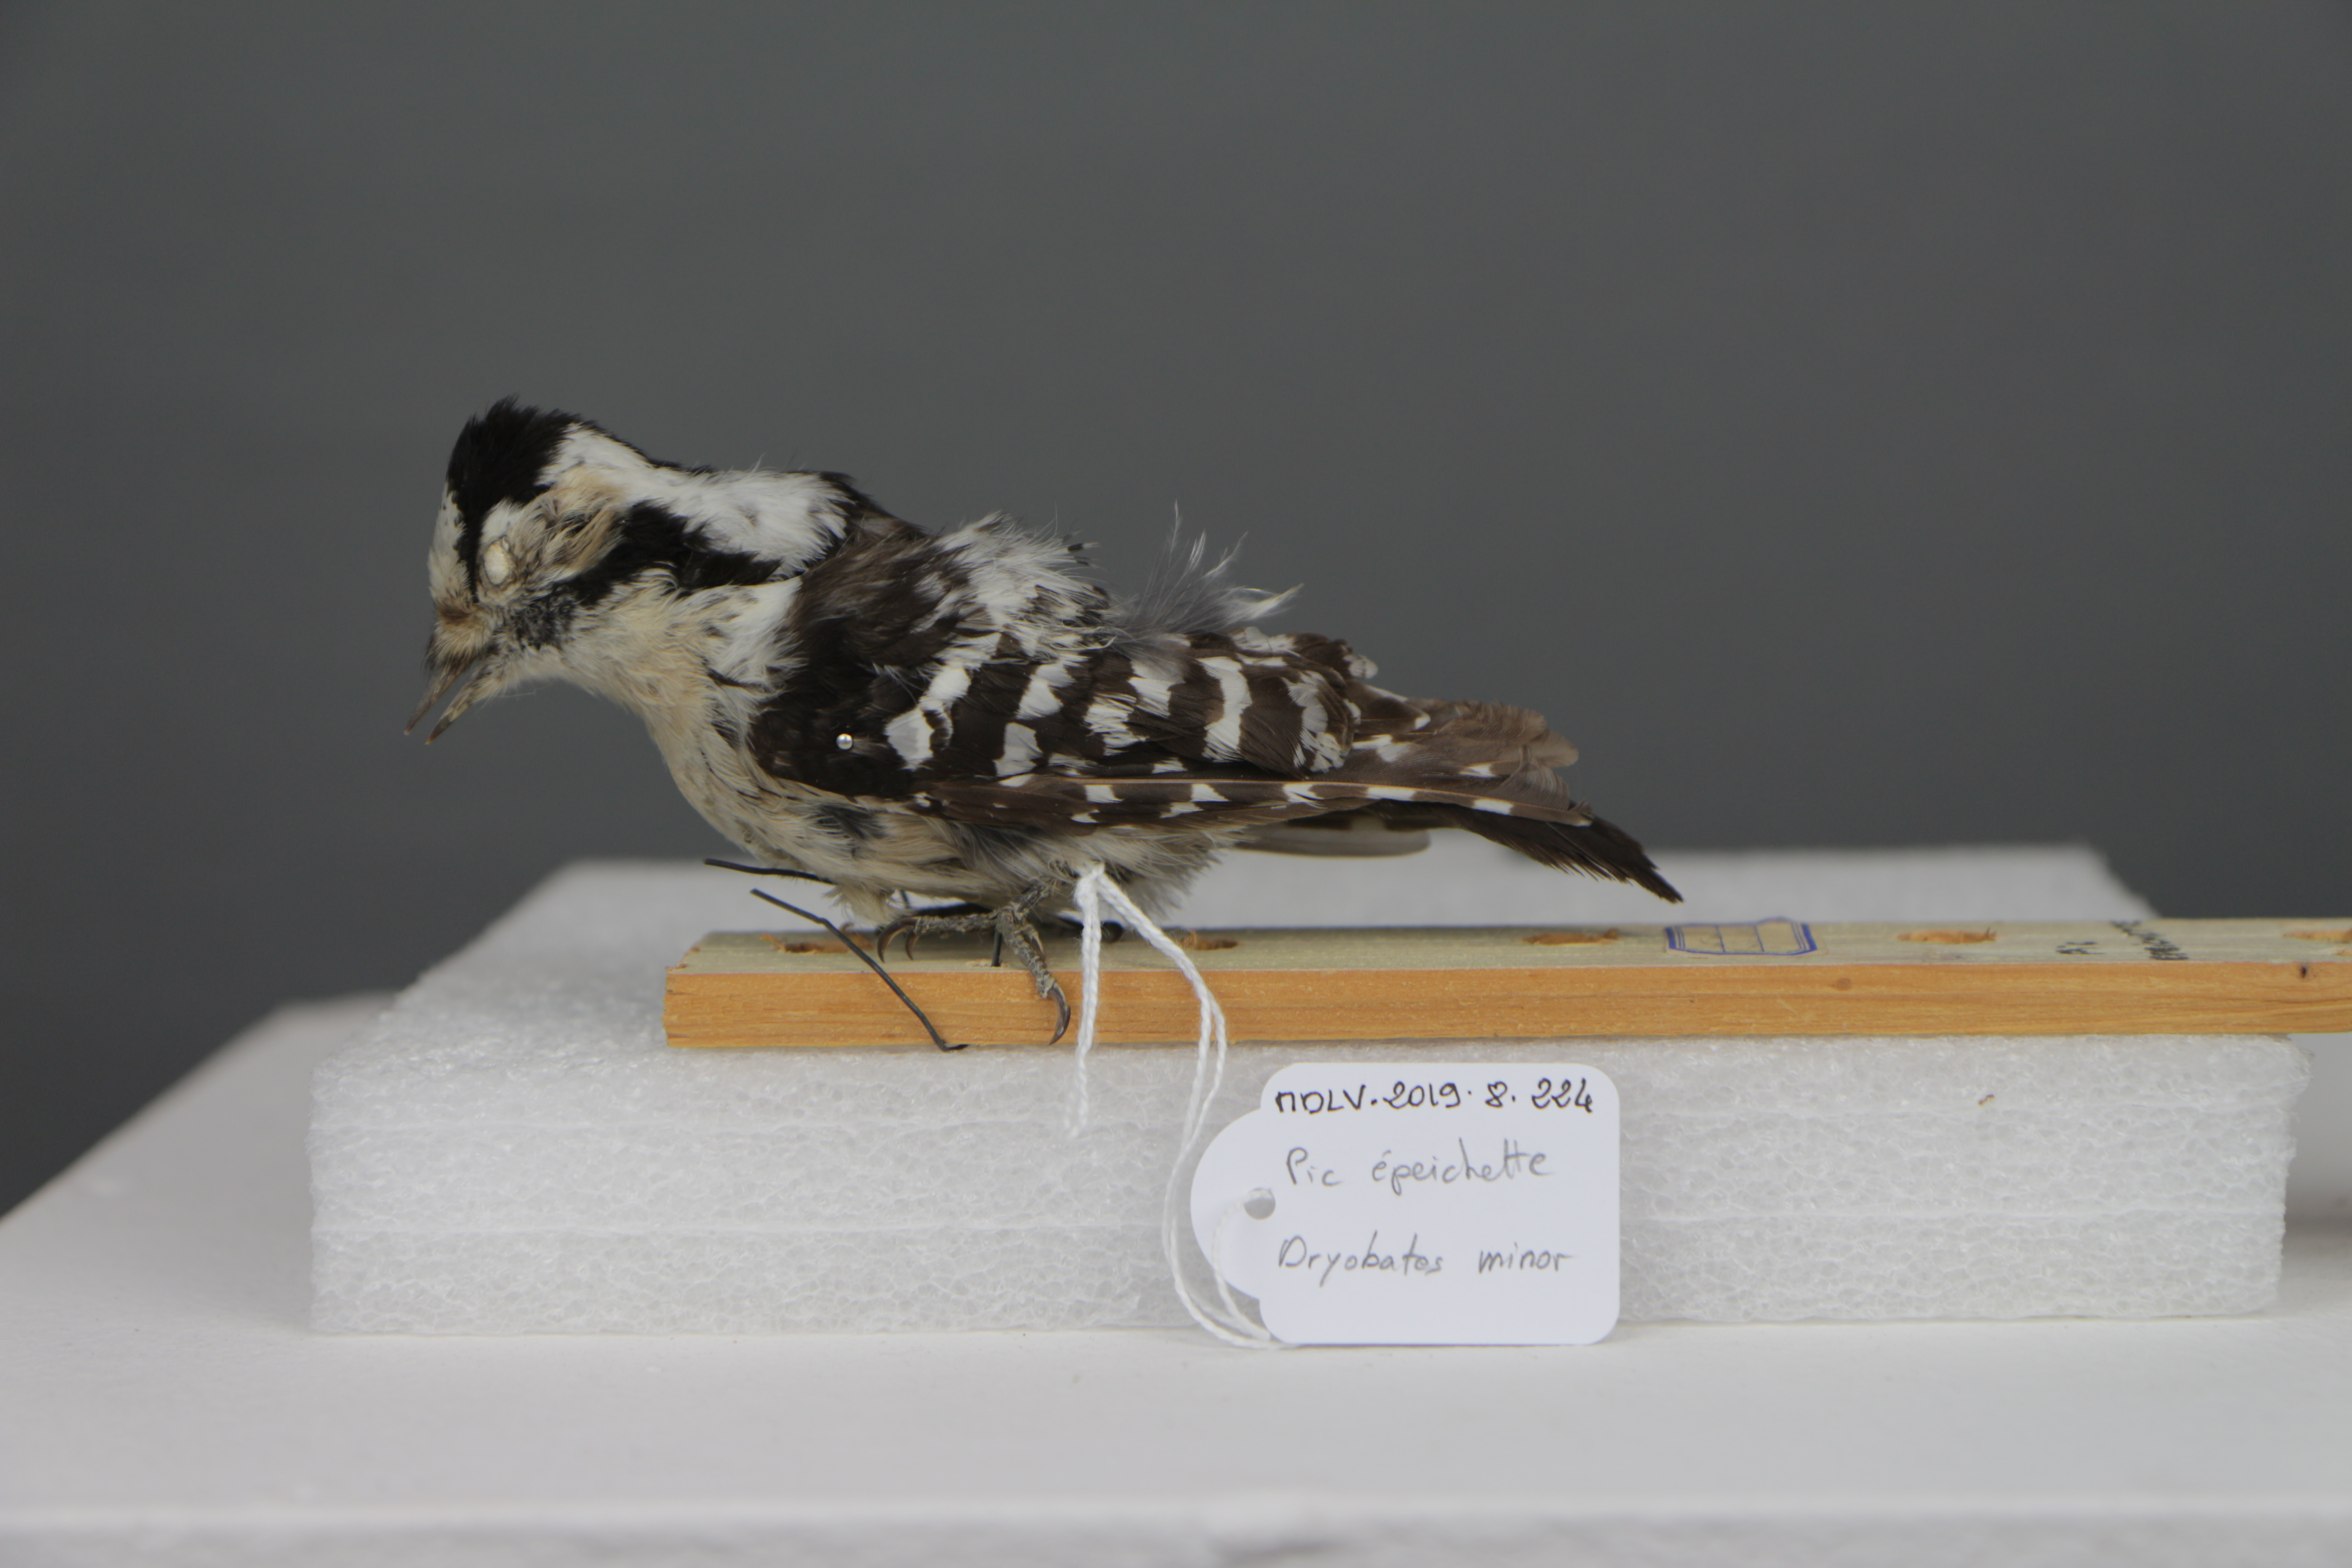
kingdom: Animalia
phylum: Chordata
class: Aves
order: Piciformes
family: Picidae
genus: Dryobates
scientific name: Dryobates minor
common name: Lesser spotted woodpecker
